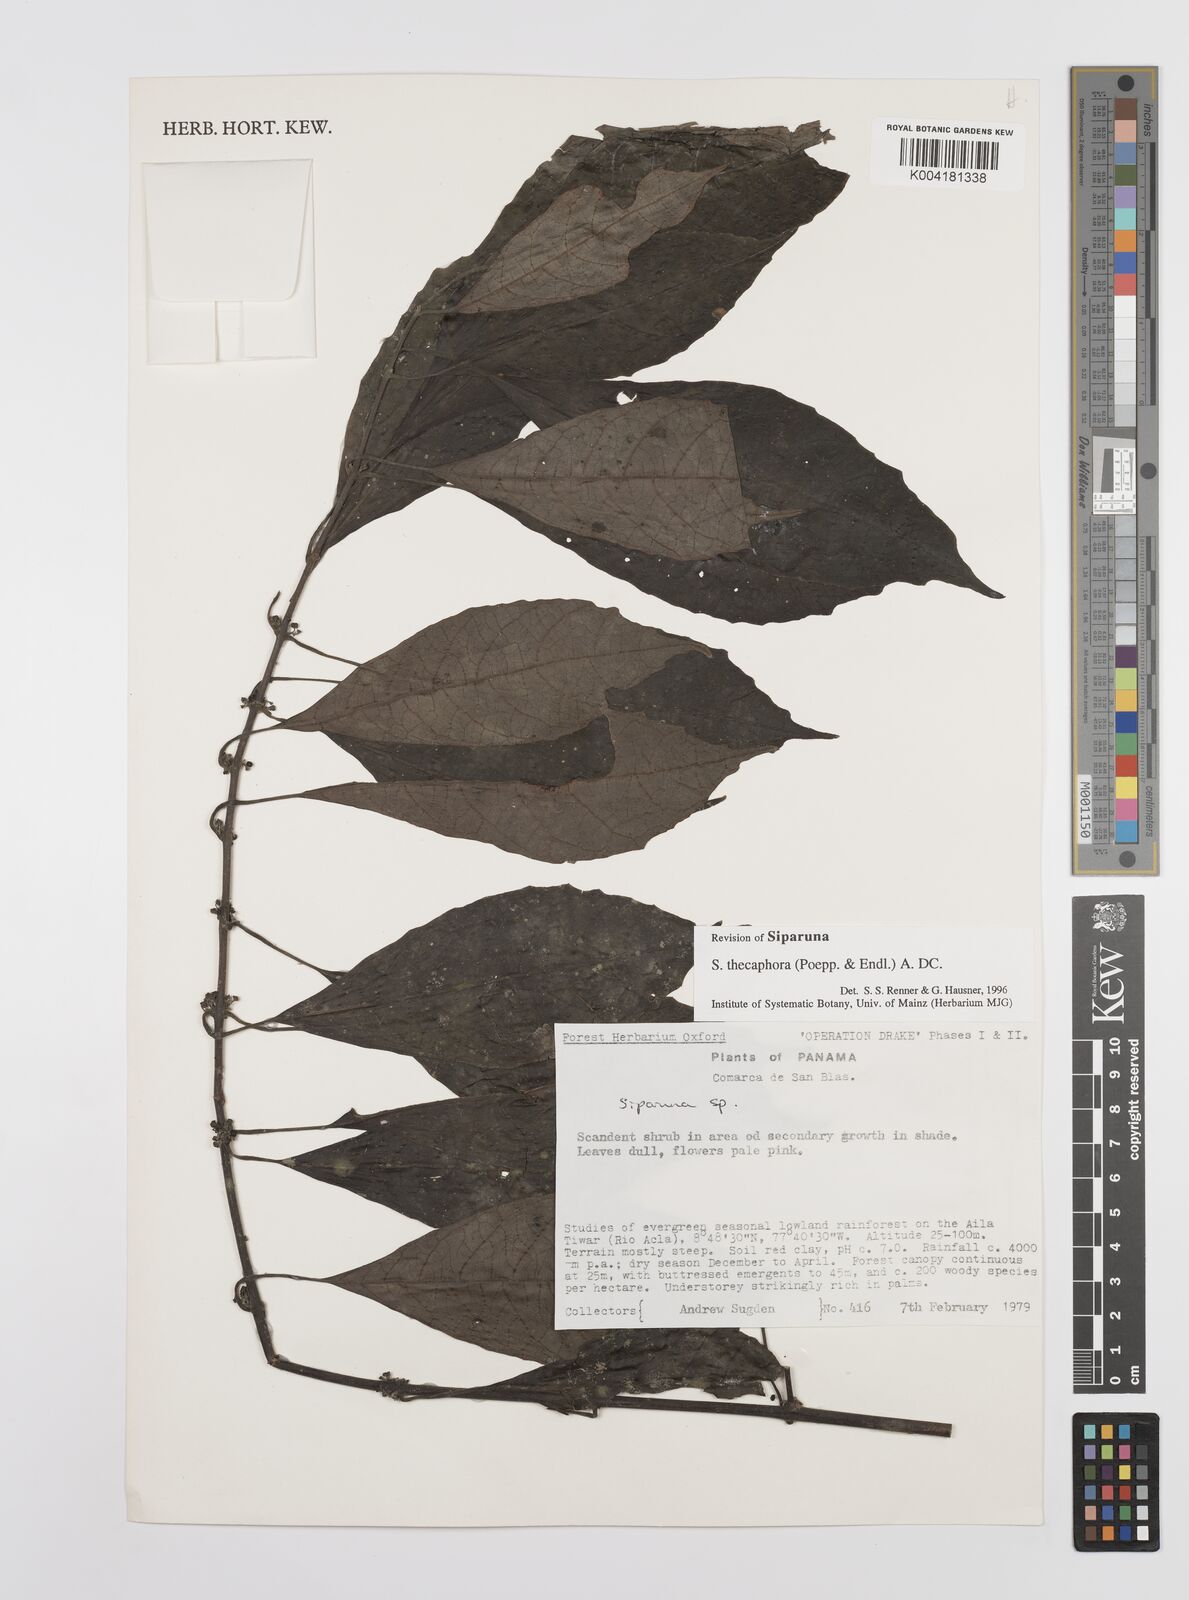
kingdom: Plantae
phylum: Tracheophyta
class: Magnoliopsida
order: Laurales
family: Siparunaceae
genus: Siparuna
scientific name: Siparuna thecaphora
